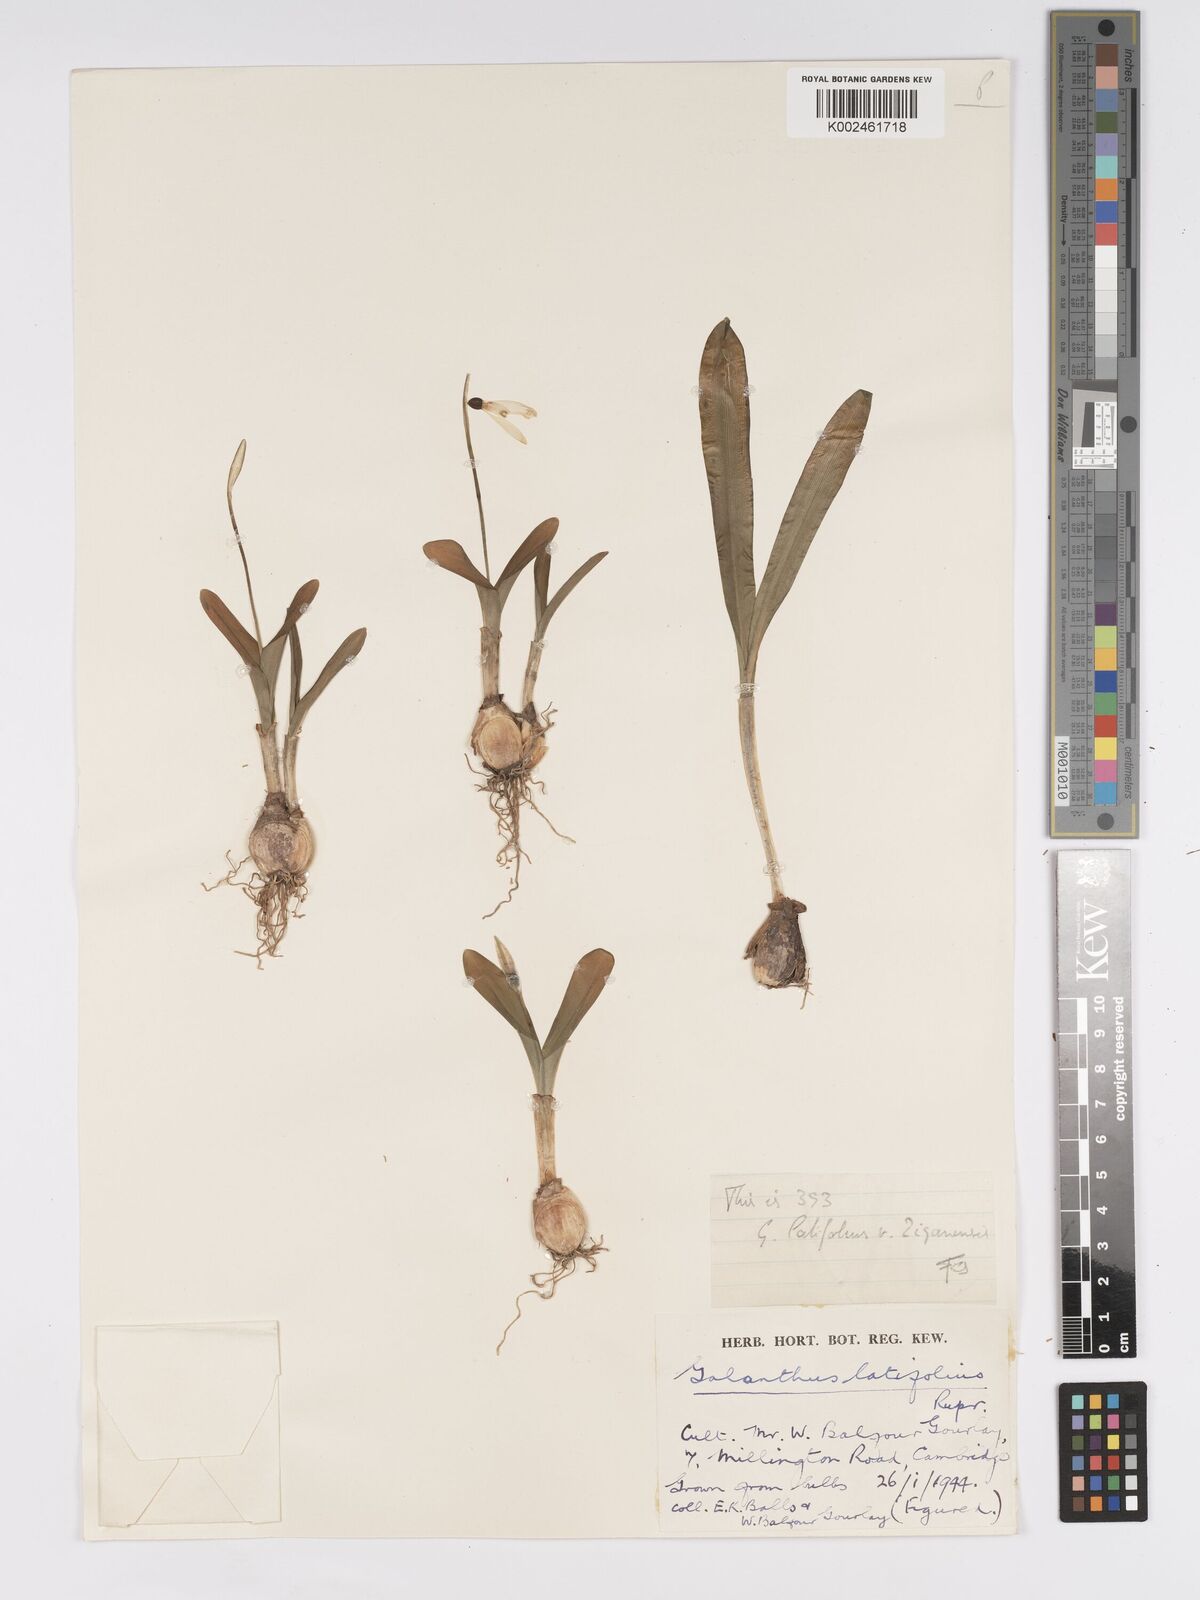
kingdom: Plantae
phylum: Tracheophyta
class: Liliopsida
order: Asparagales
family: Amaryllidaceae
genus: Galanthus
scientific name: Galanthus platyphyllus
